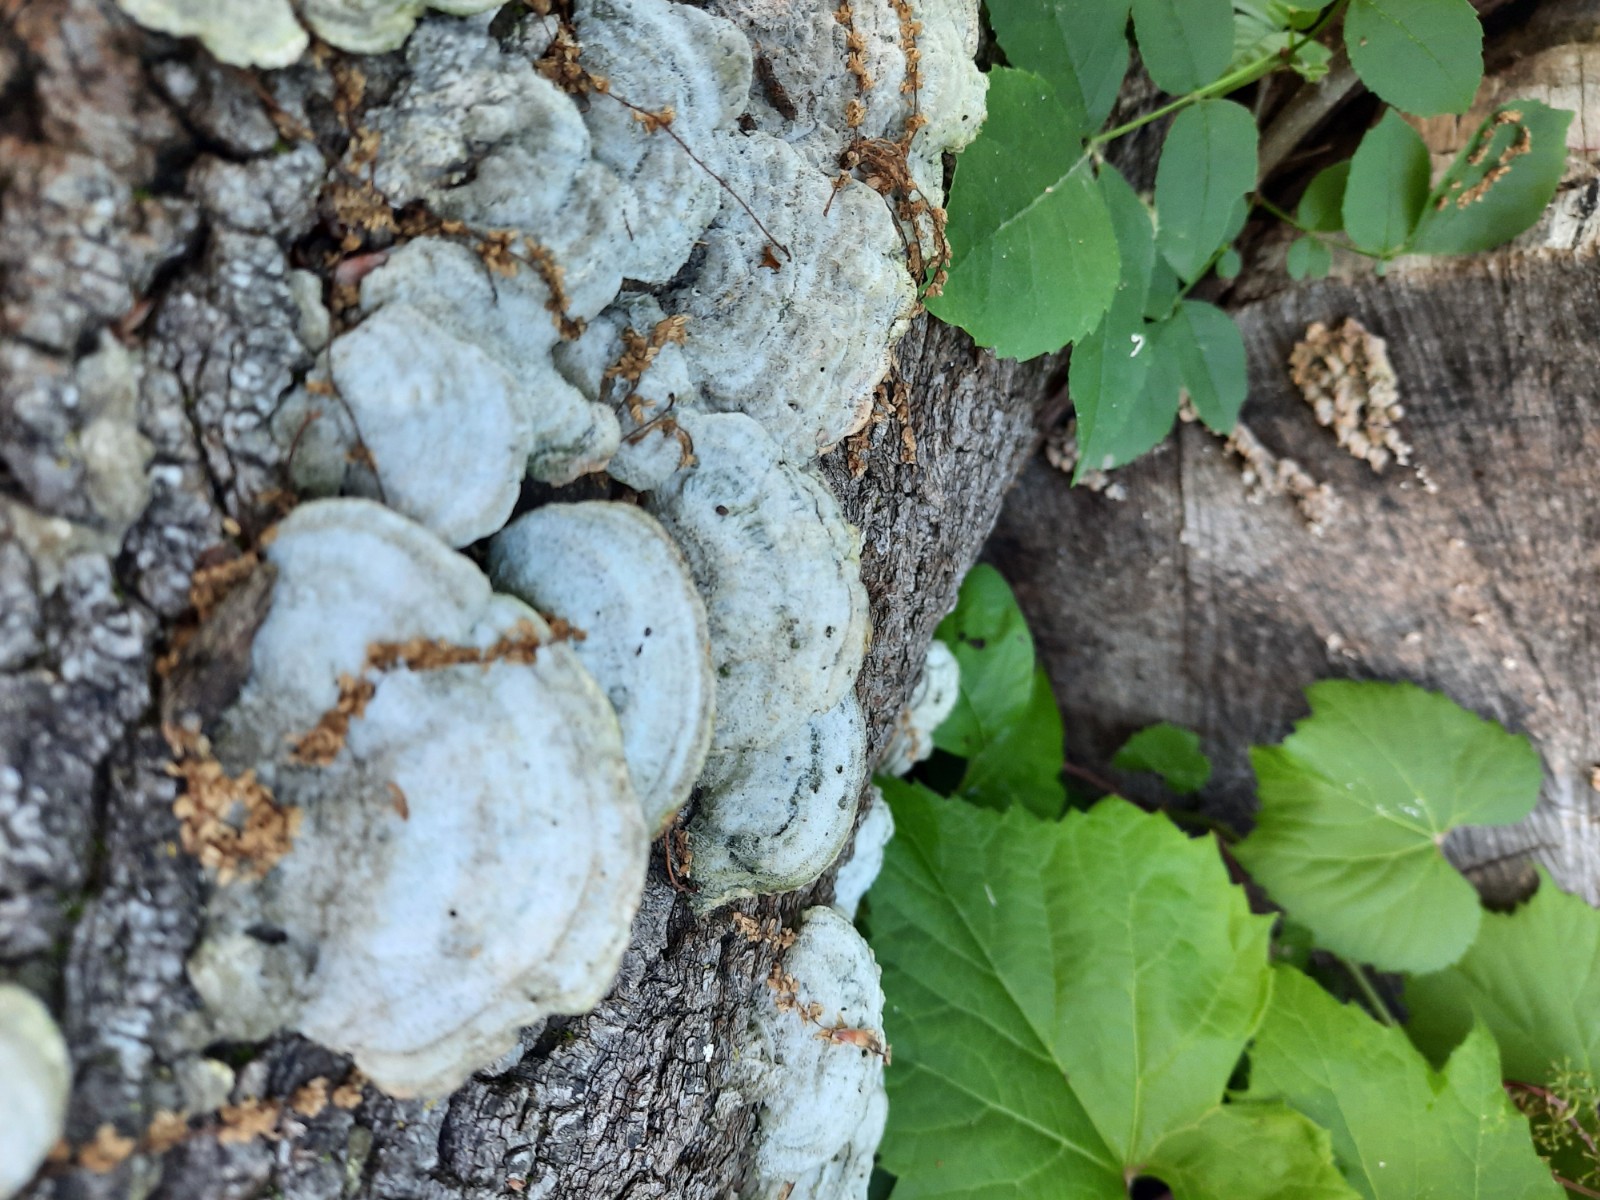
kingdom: Fungi
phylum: Basidiomycota
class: Agaricomycetes
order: Polyporales
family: Polyporaceae
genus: Trametes
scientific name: Trametes hirsuta
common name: håret læderporesvamp
